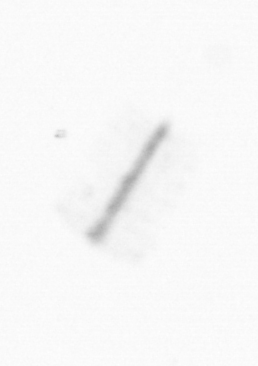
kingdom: Chromista
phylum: Ochrophyta
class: Bacillariophyceae
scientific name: Bacillariophyceae
